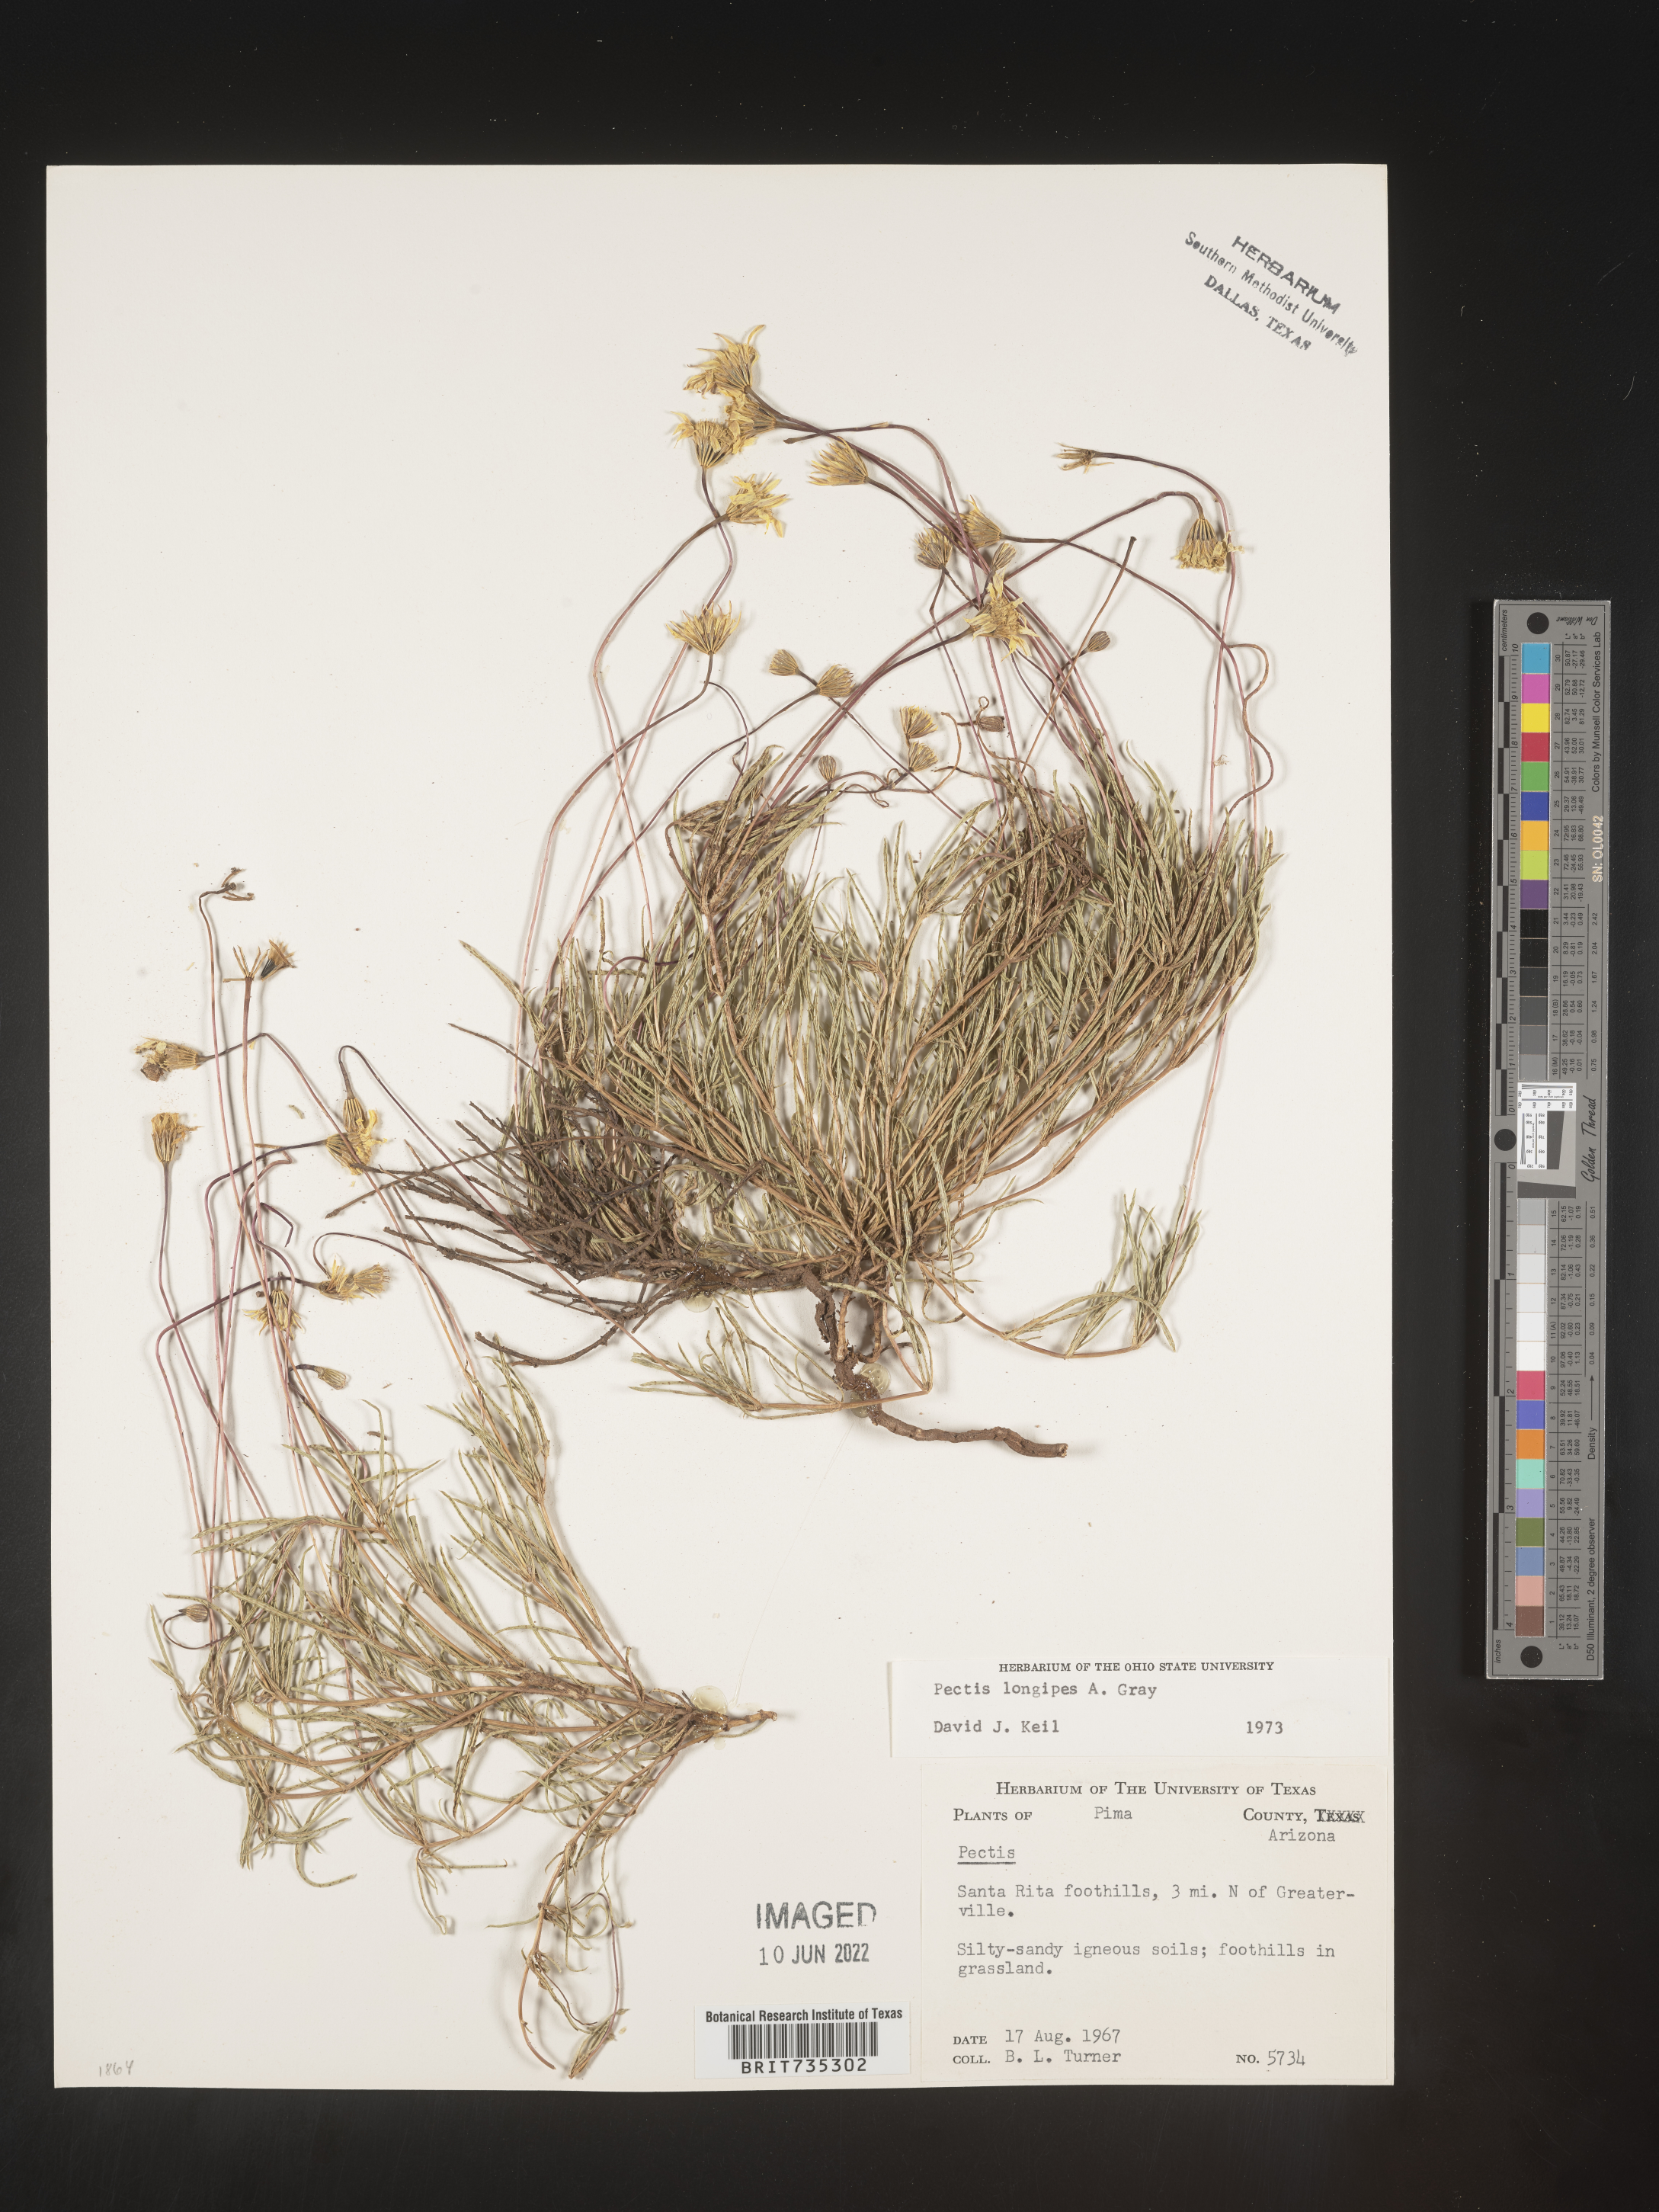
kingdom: Plantae
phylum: Tracheophyta
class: Magnoliopsida
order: Asterales
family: Asteraceae
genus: Pectis
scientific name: Pectis longipes
